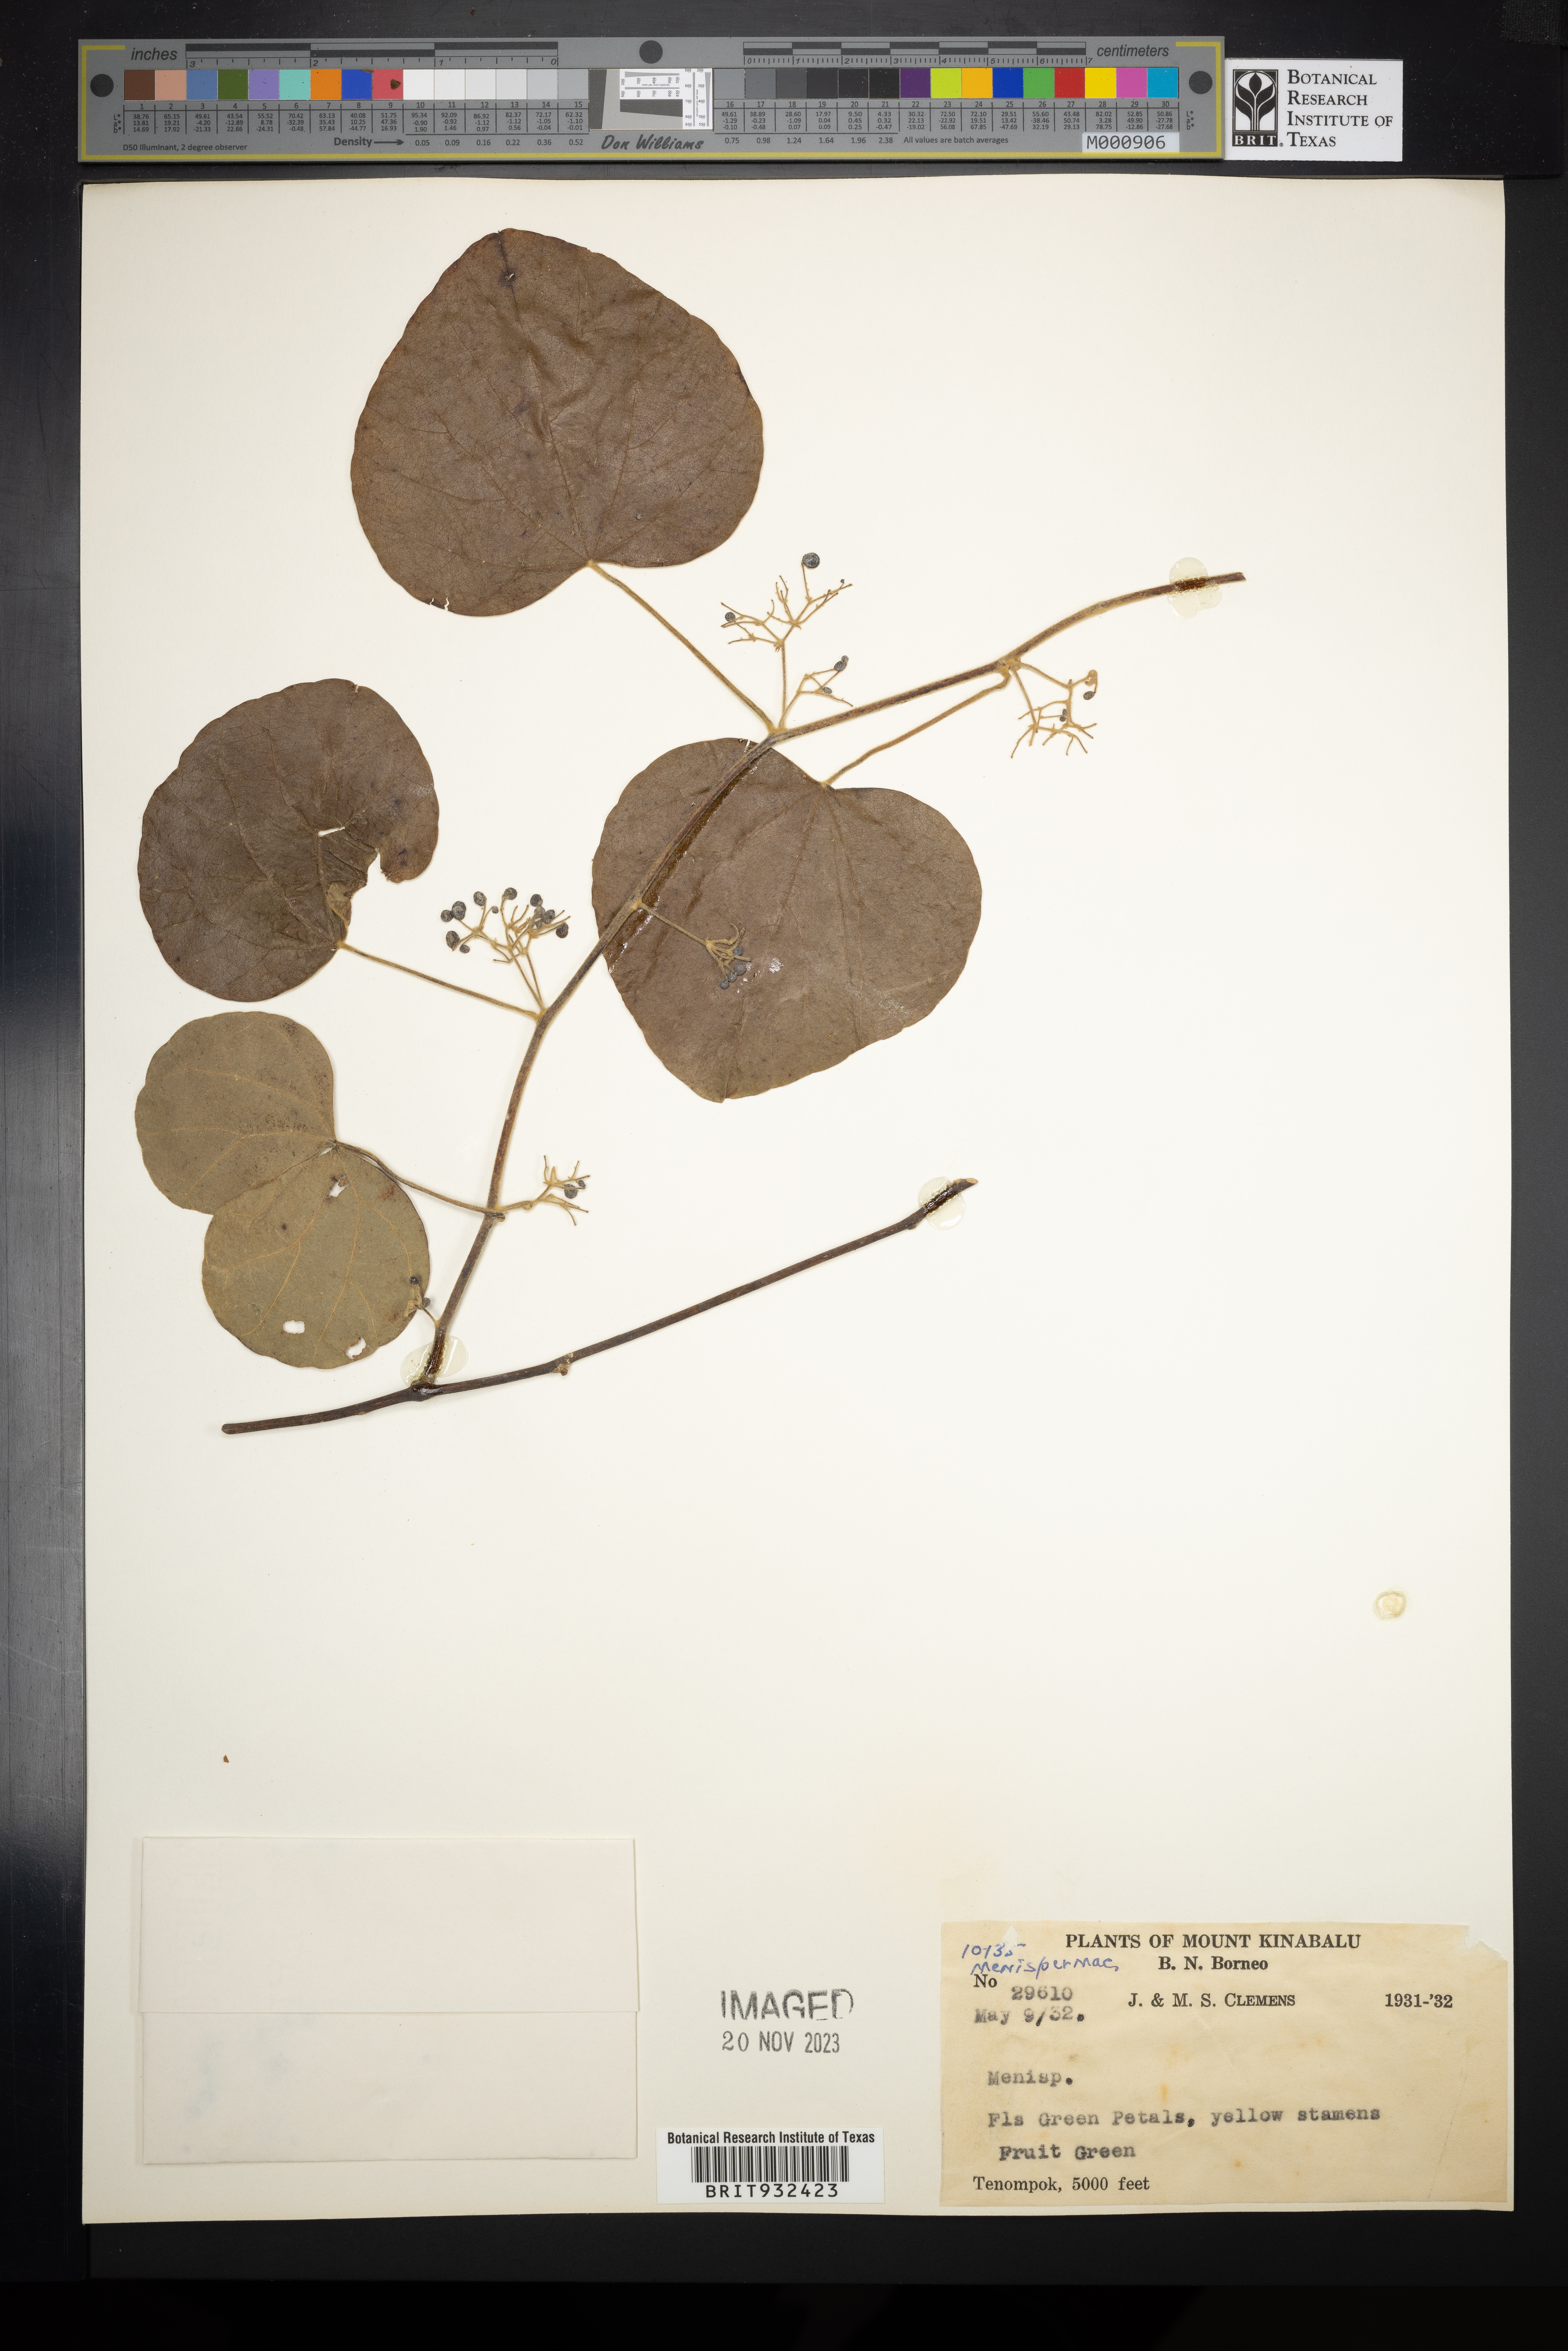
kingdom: Plantae
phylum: Tracheophyta
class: Magnoliopsida
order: Ranunculales
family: Menispermaceae
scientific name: Menispermaceae
